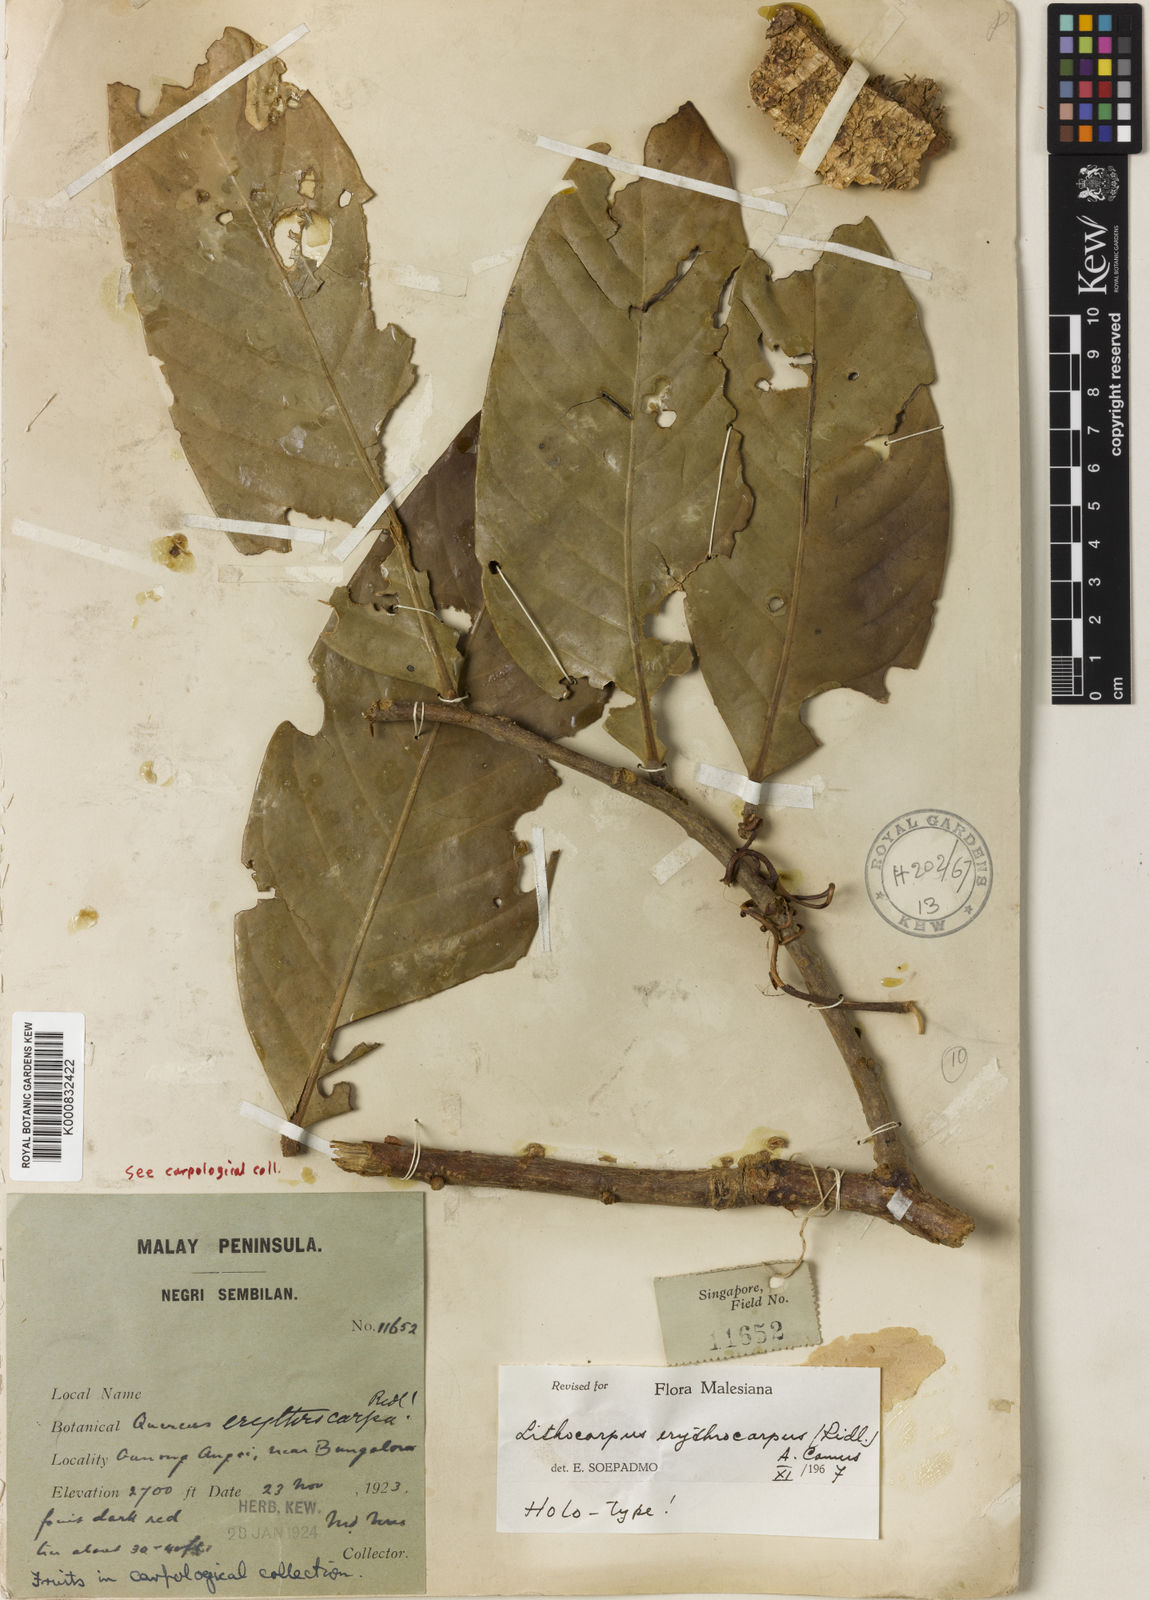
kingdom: Plantae
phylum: Tracheophyta
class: Magnoliopsida
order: Fagales
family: Fagaceae
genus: Lithocarpus
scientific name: Lithocarpus erythrocarpus
